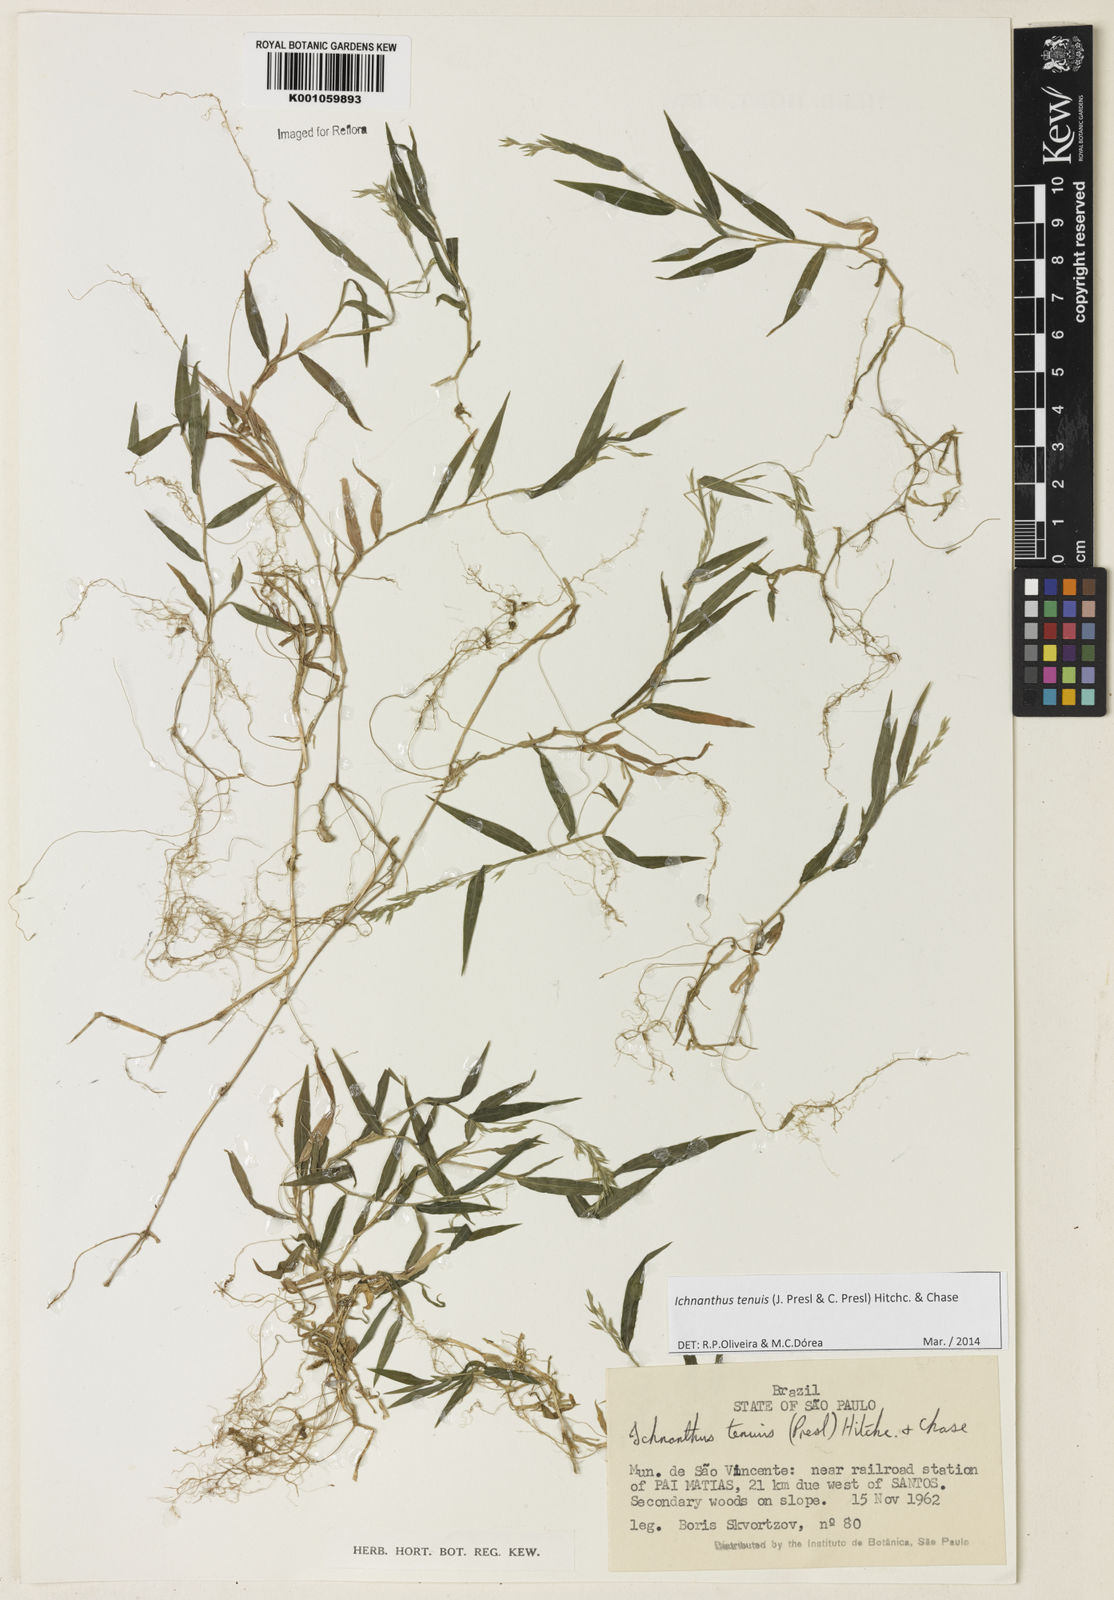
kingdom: Plantae
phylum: Tracheophyta
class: Liliopsida
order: Poales
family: Poaceae
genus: Ichnanthus
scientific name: Ichnanthus tenuis
